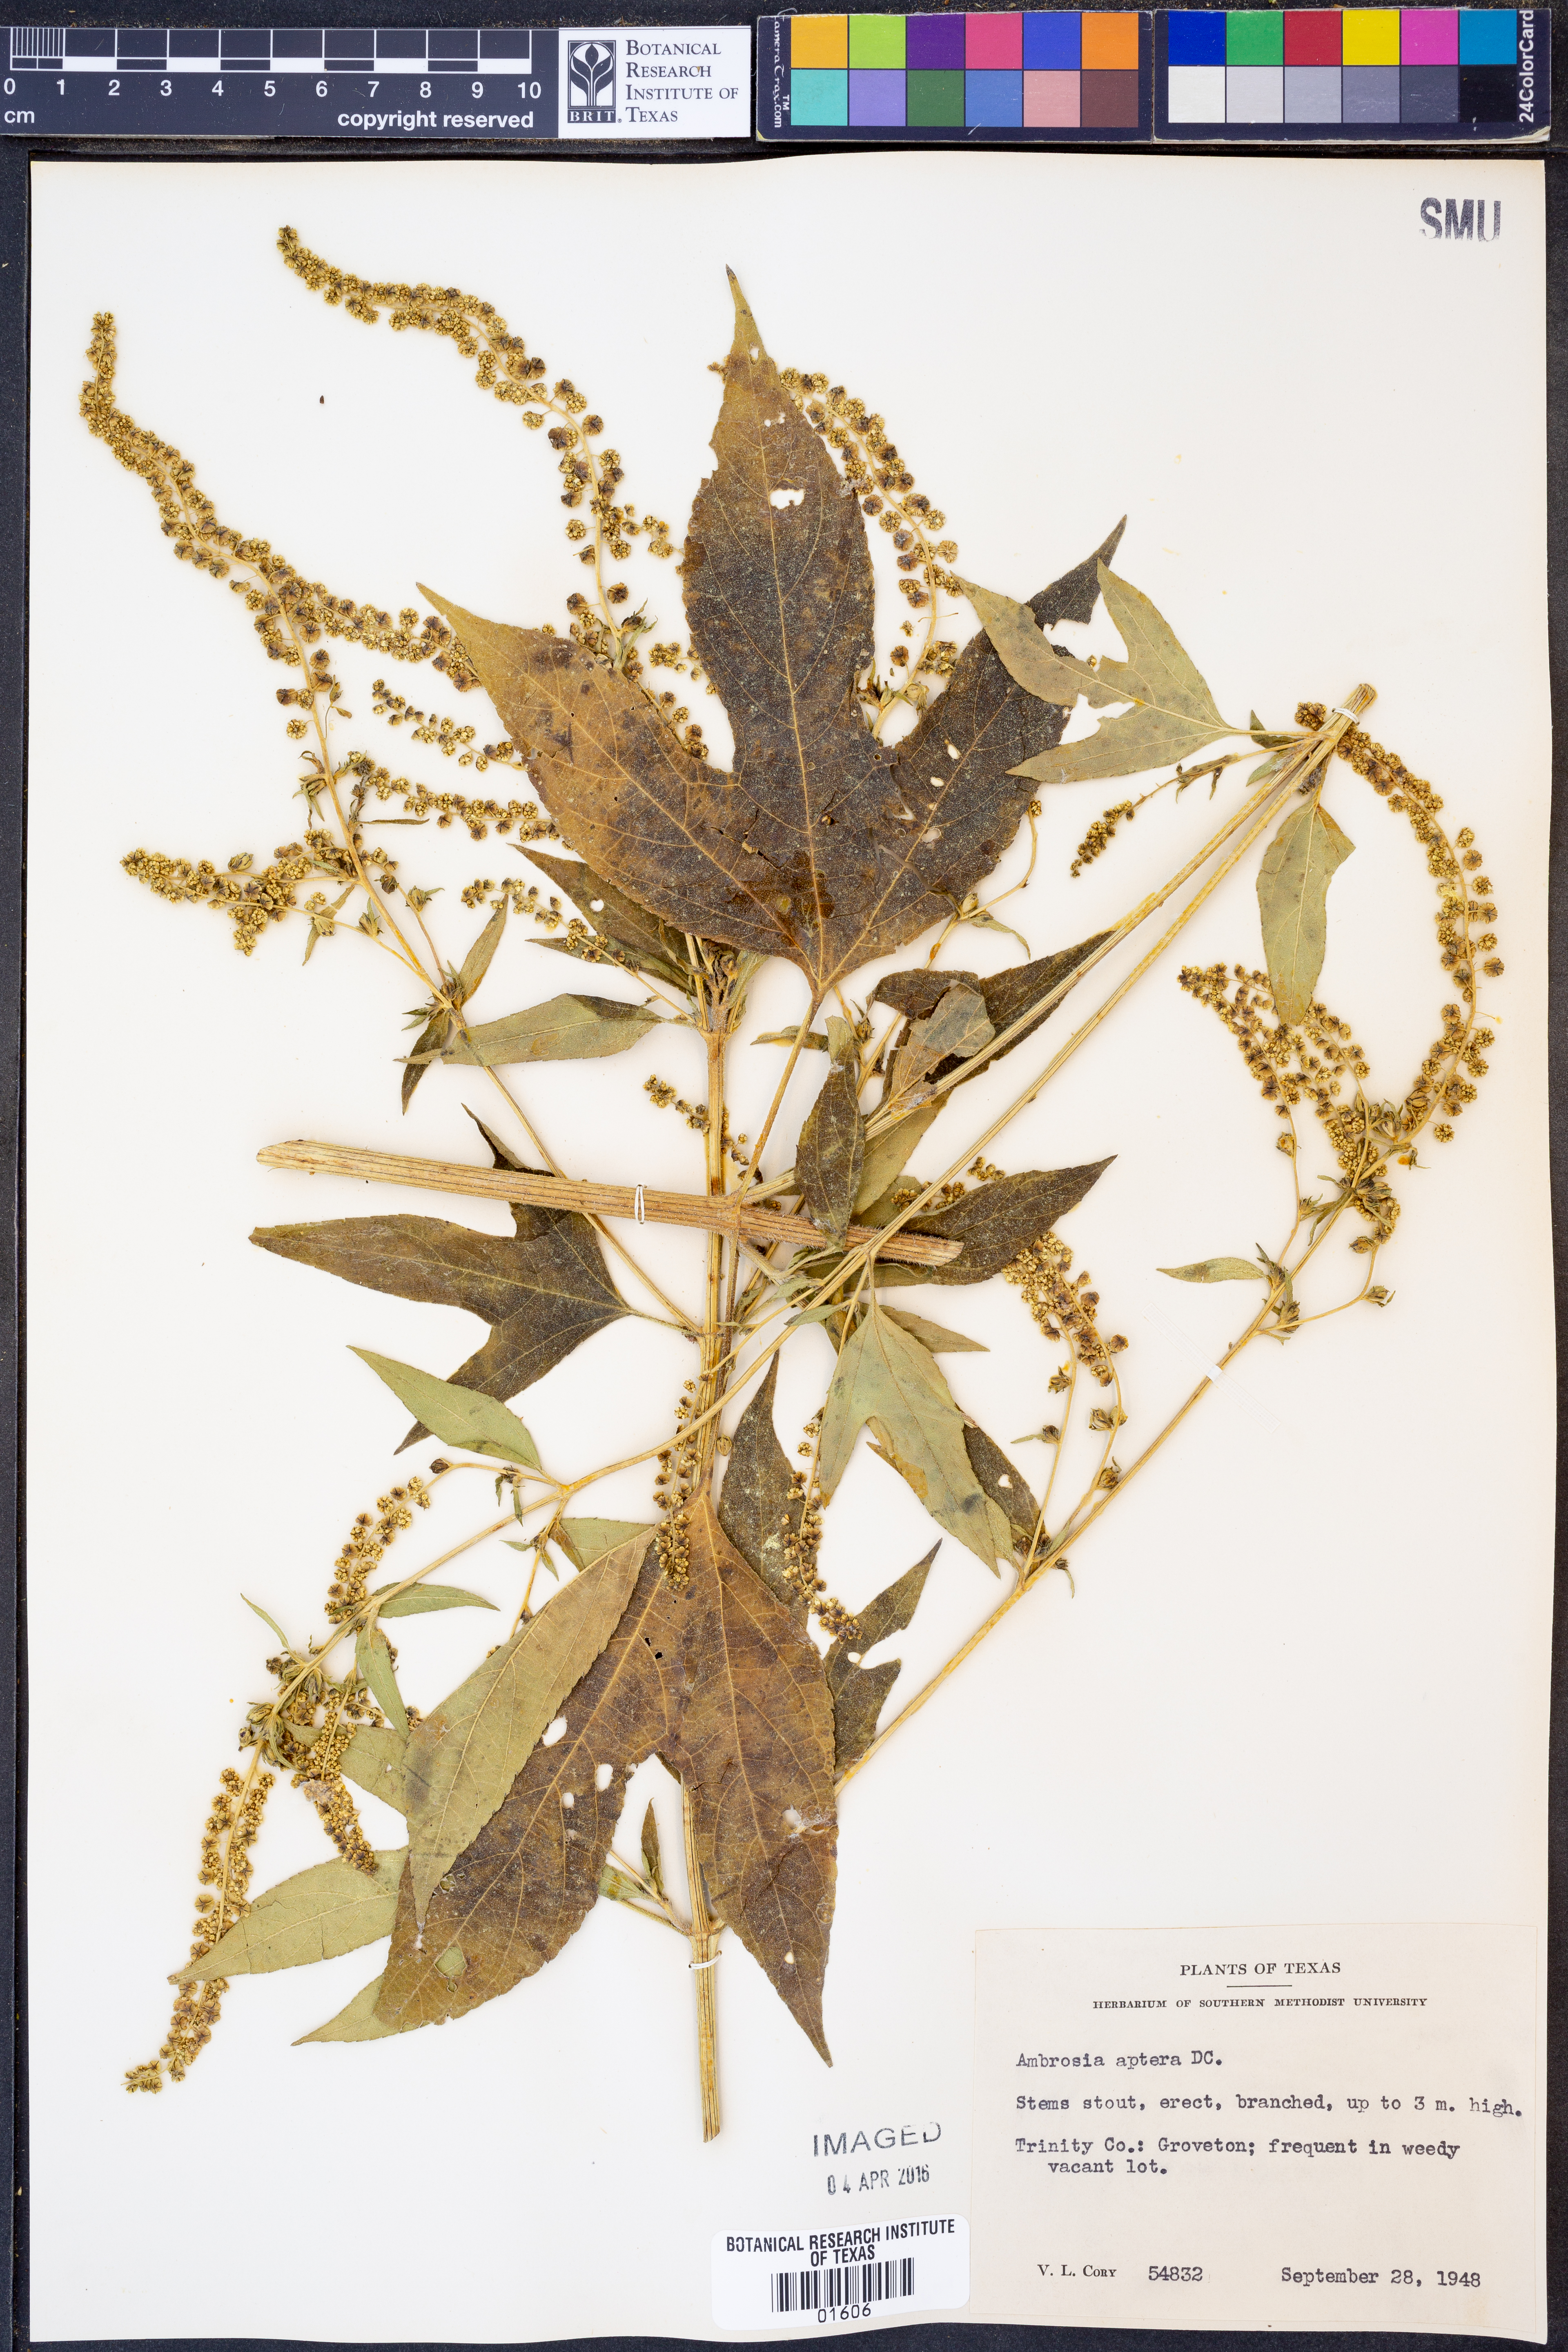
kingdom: Plantae
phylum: Tracheophyta
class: Magnoliopsida
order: Asterales
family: Asteraceae
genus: Ambrosia
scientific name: Ambrosia trifida
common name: Giant ragweed
